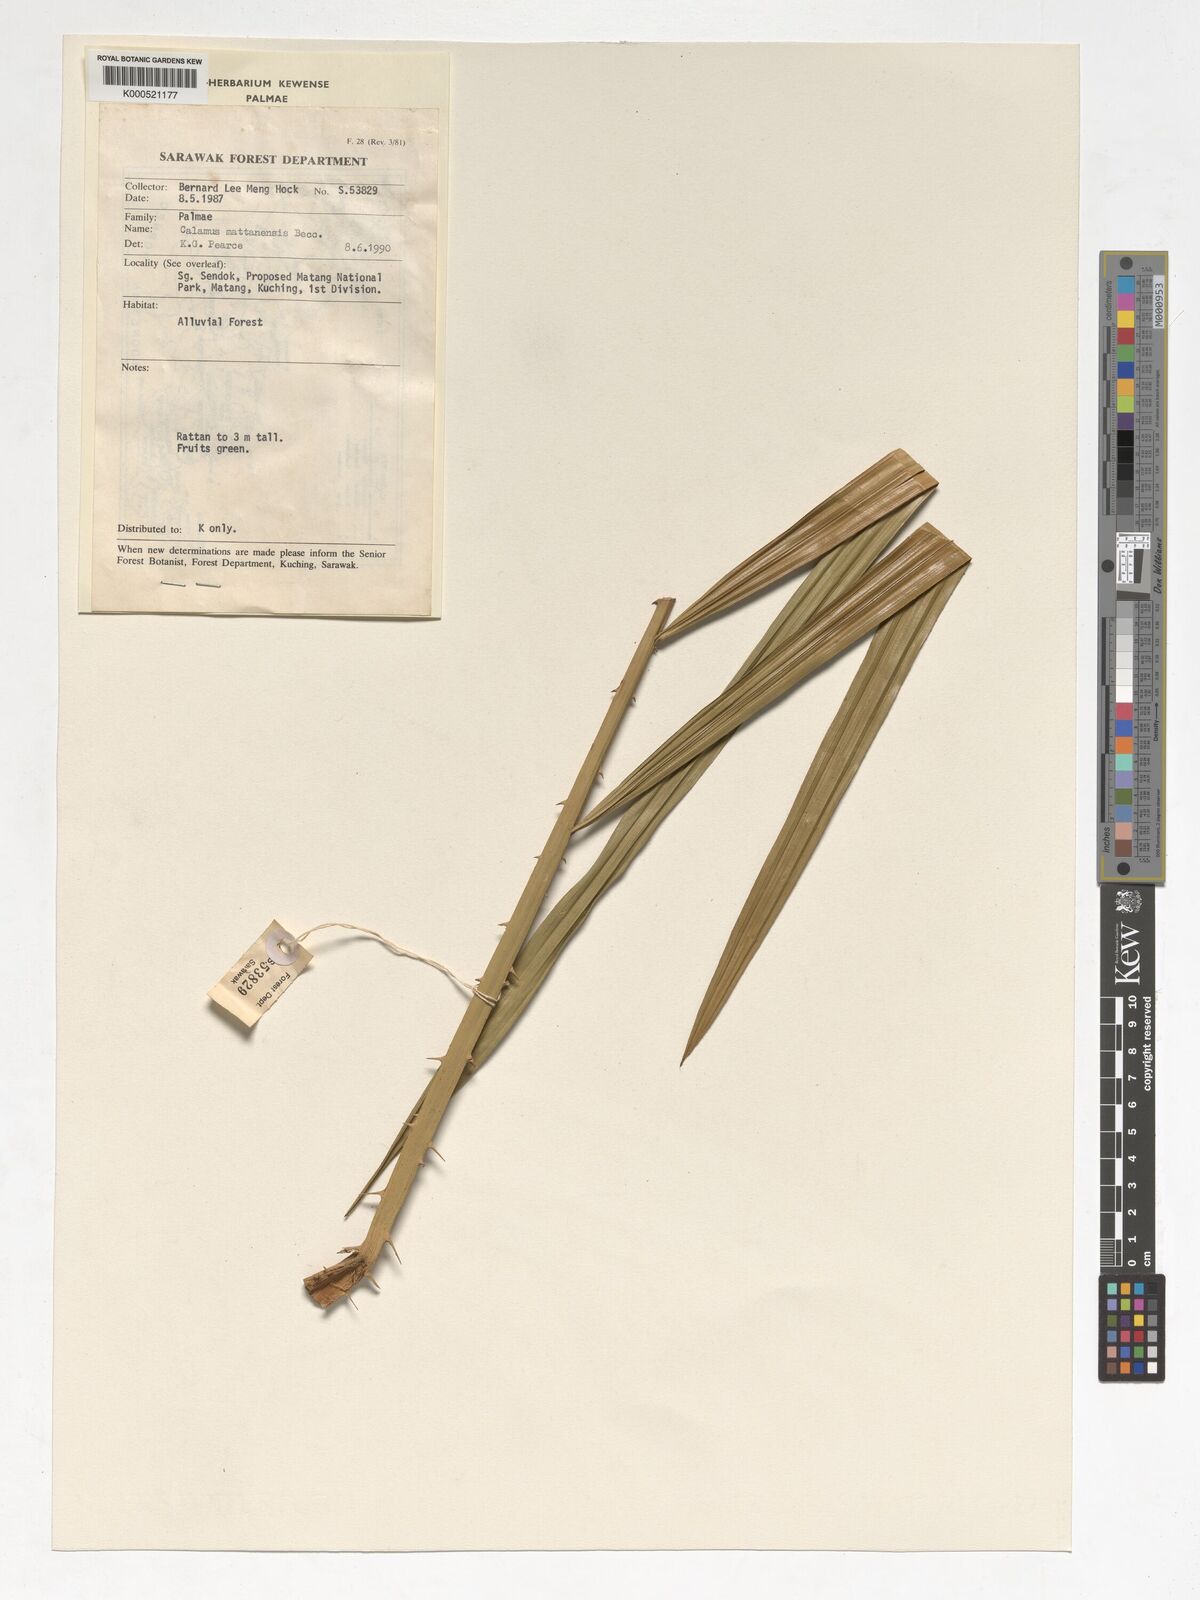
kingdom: Plantae
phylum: Tracheophyta
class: Liliopsida
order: Arecales
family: Arecaceae
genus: Calamus
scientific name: Calamus
